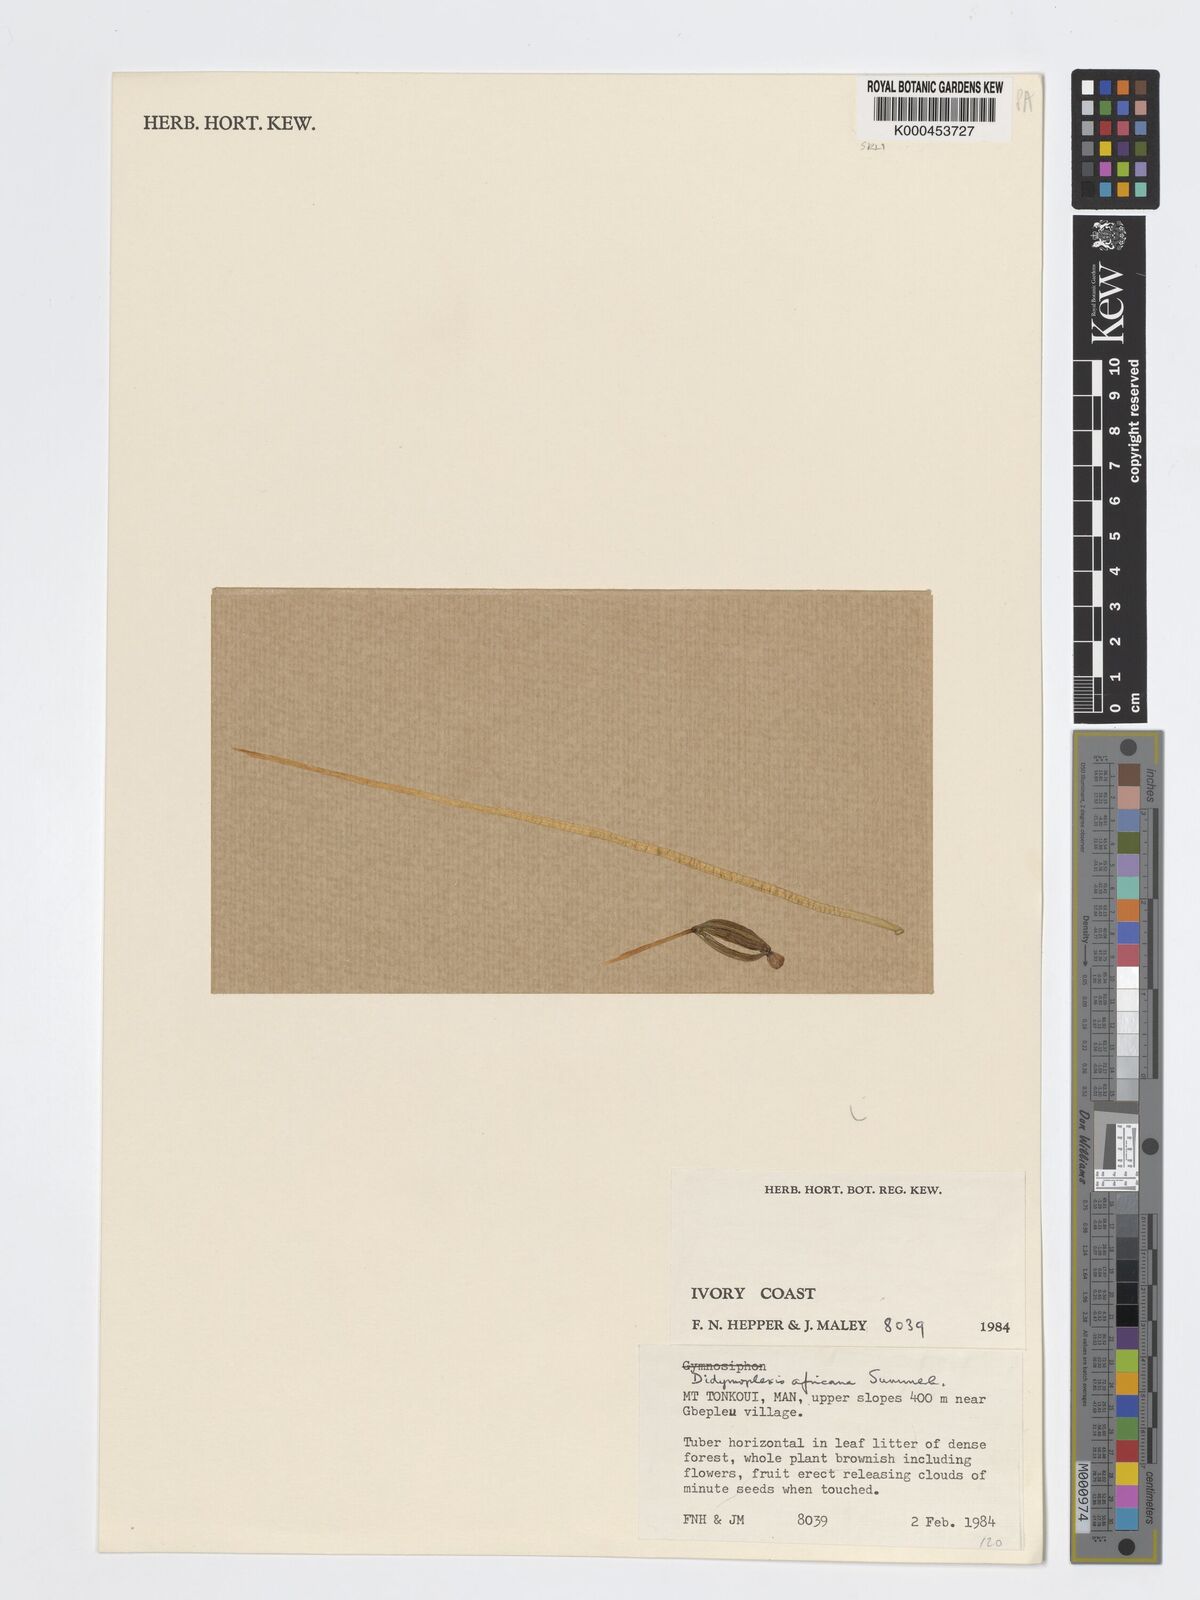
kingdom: Plantae
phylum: Tracheophyta
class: Liliopsida
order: Asparagales
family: Orchidaceae
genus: Didymoplexis
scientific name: Didymoplexis africana
